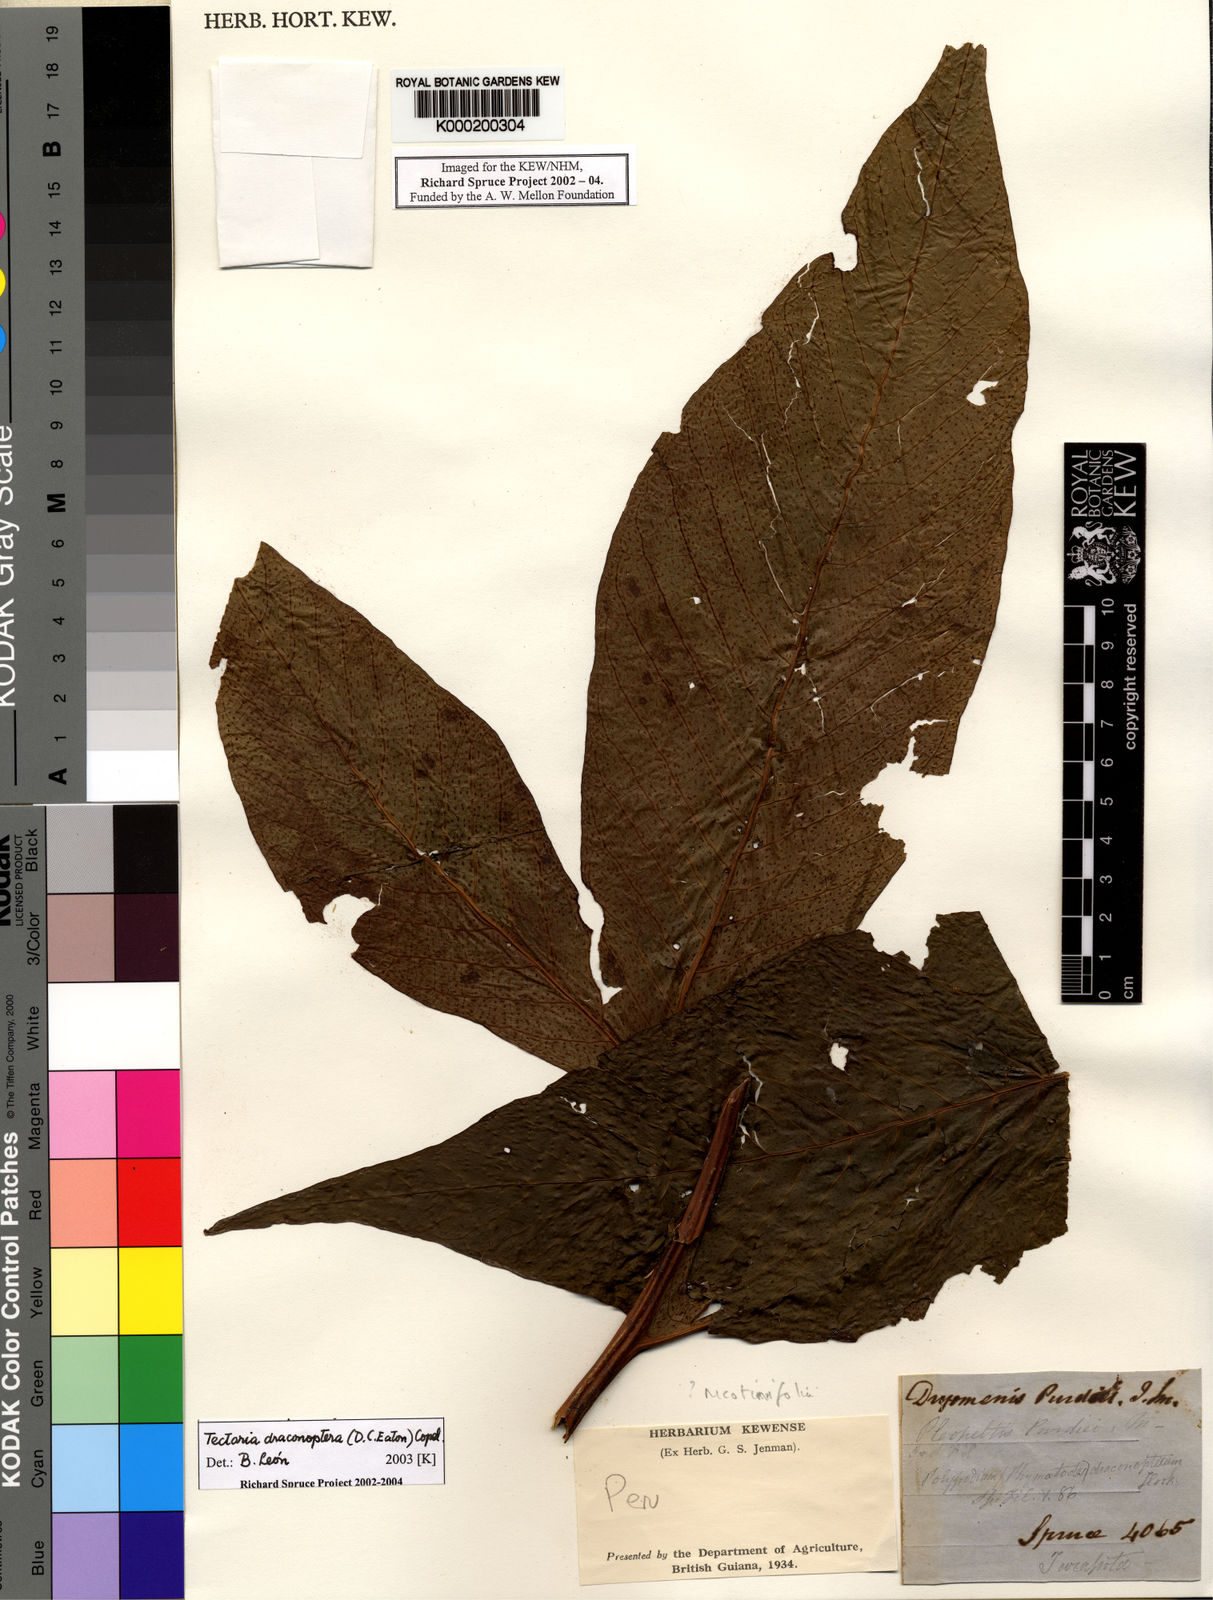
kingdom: Plantae
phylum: Tracheophyta
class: Polypodiopsida
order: Polypodiales
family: Tectariaceae
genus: Draconopteris
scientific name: Draconopteris draconoptera
